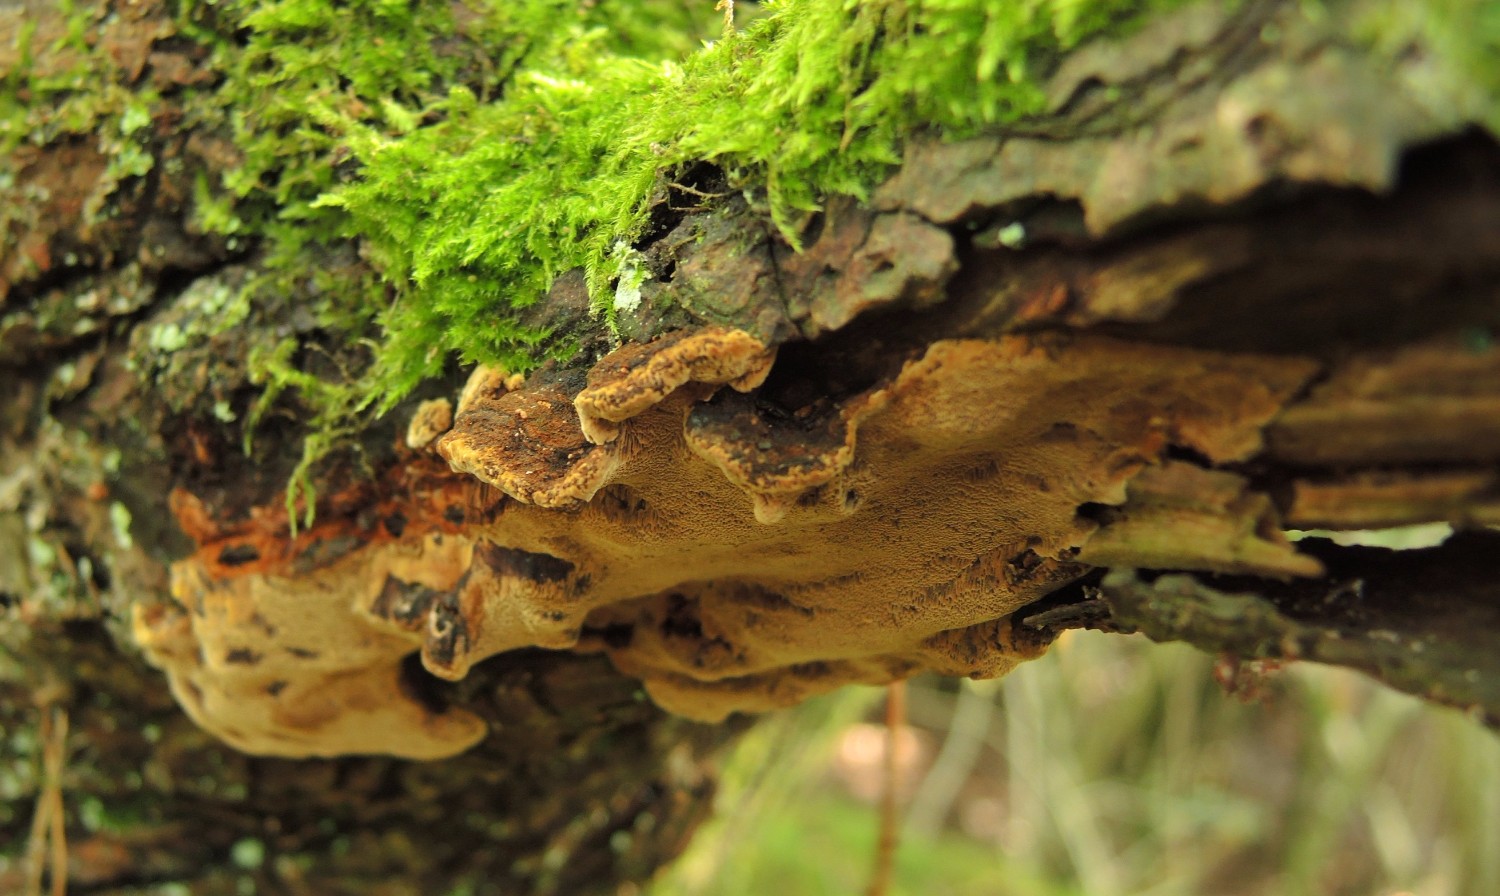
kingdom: Fungi
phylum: Basidiomycota
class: Agaricomycetes
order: Hymenochaetales
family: Hymenochaetaceae
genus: Phellinopsis
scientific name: Phellinopsis conchata
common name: pile-ildporesvamp
